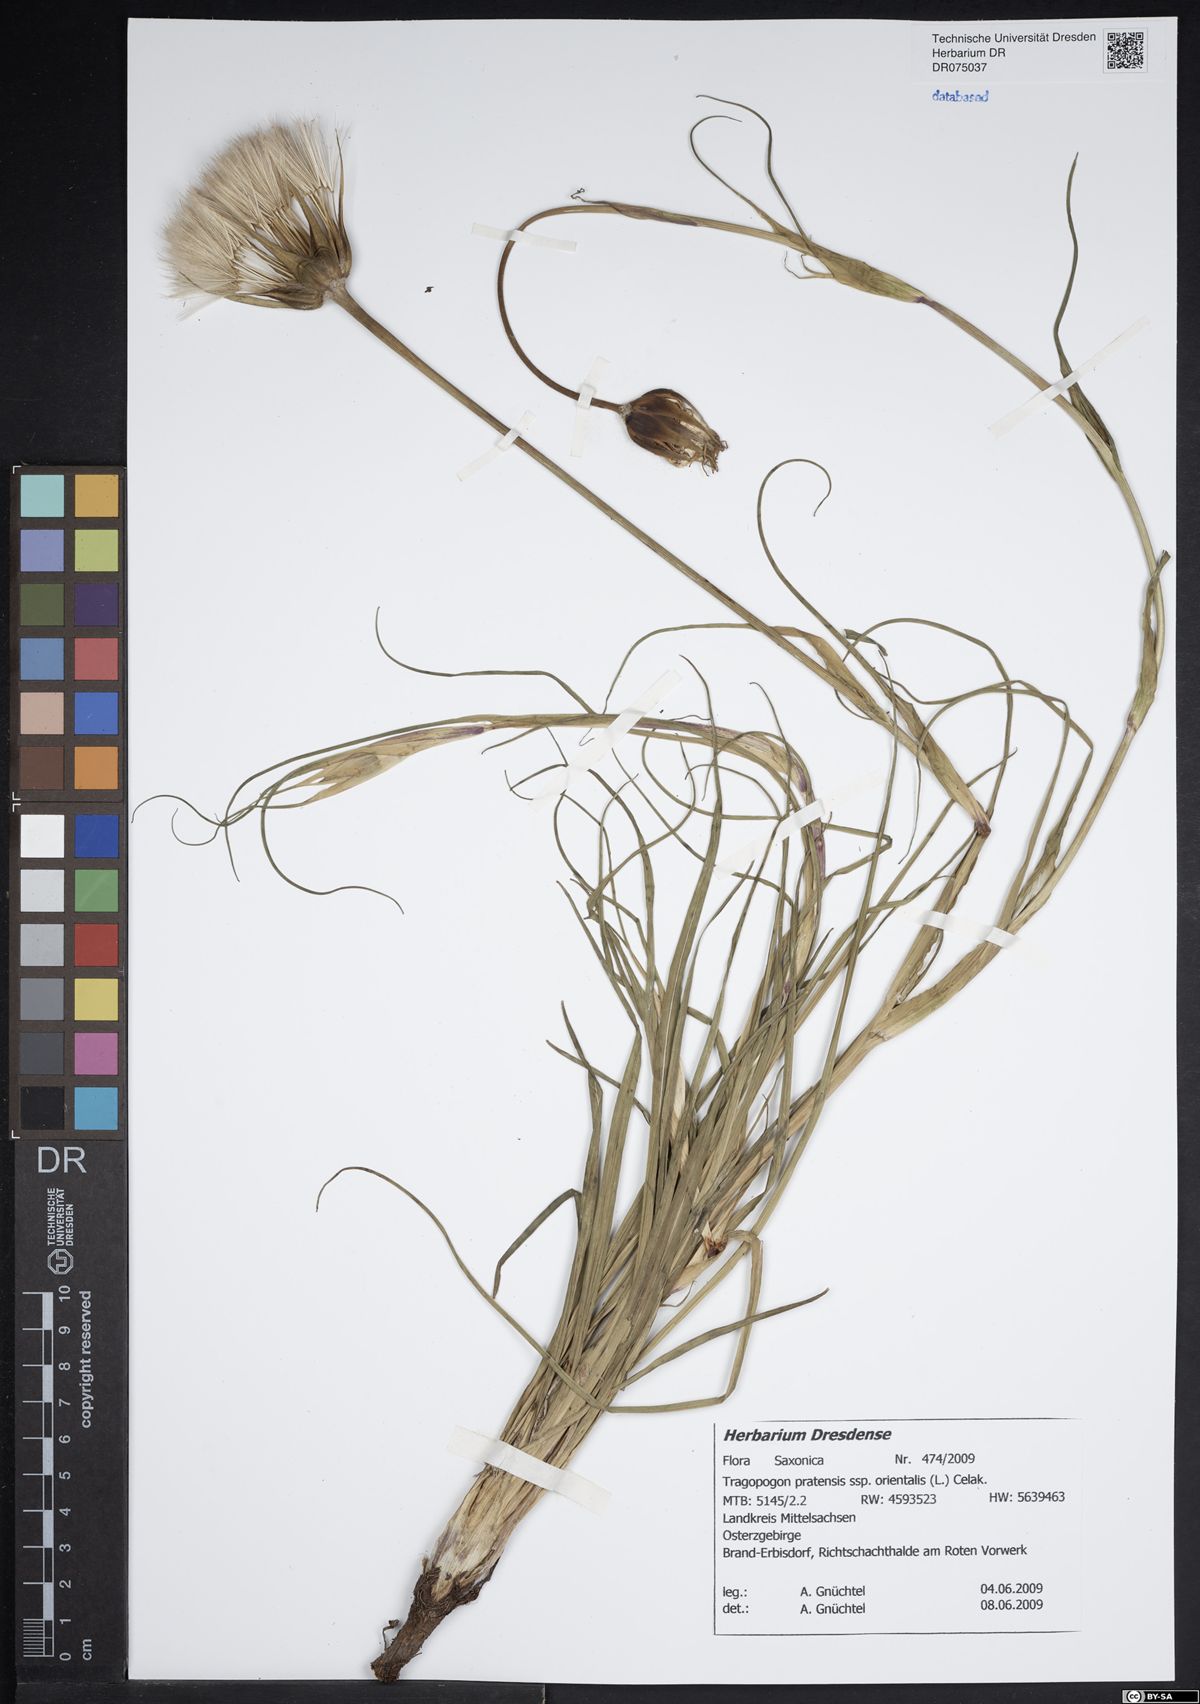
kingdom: Plantae
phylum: Tracheophyta
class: Magnoliopsida
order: Asterales
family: Asteraceae
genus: Tragopogon
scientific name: Tragopogon orientalis
